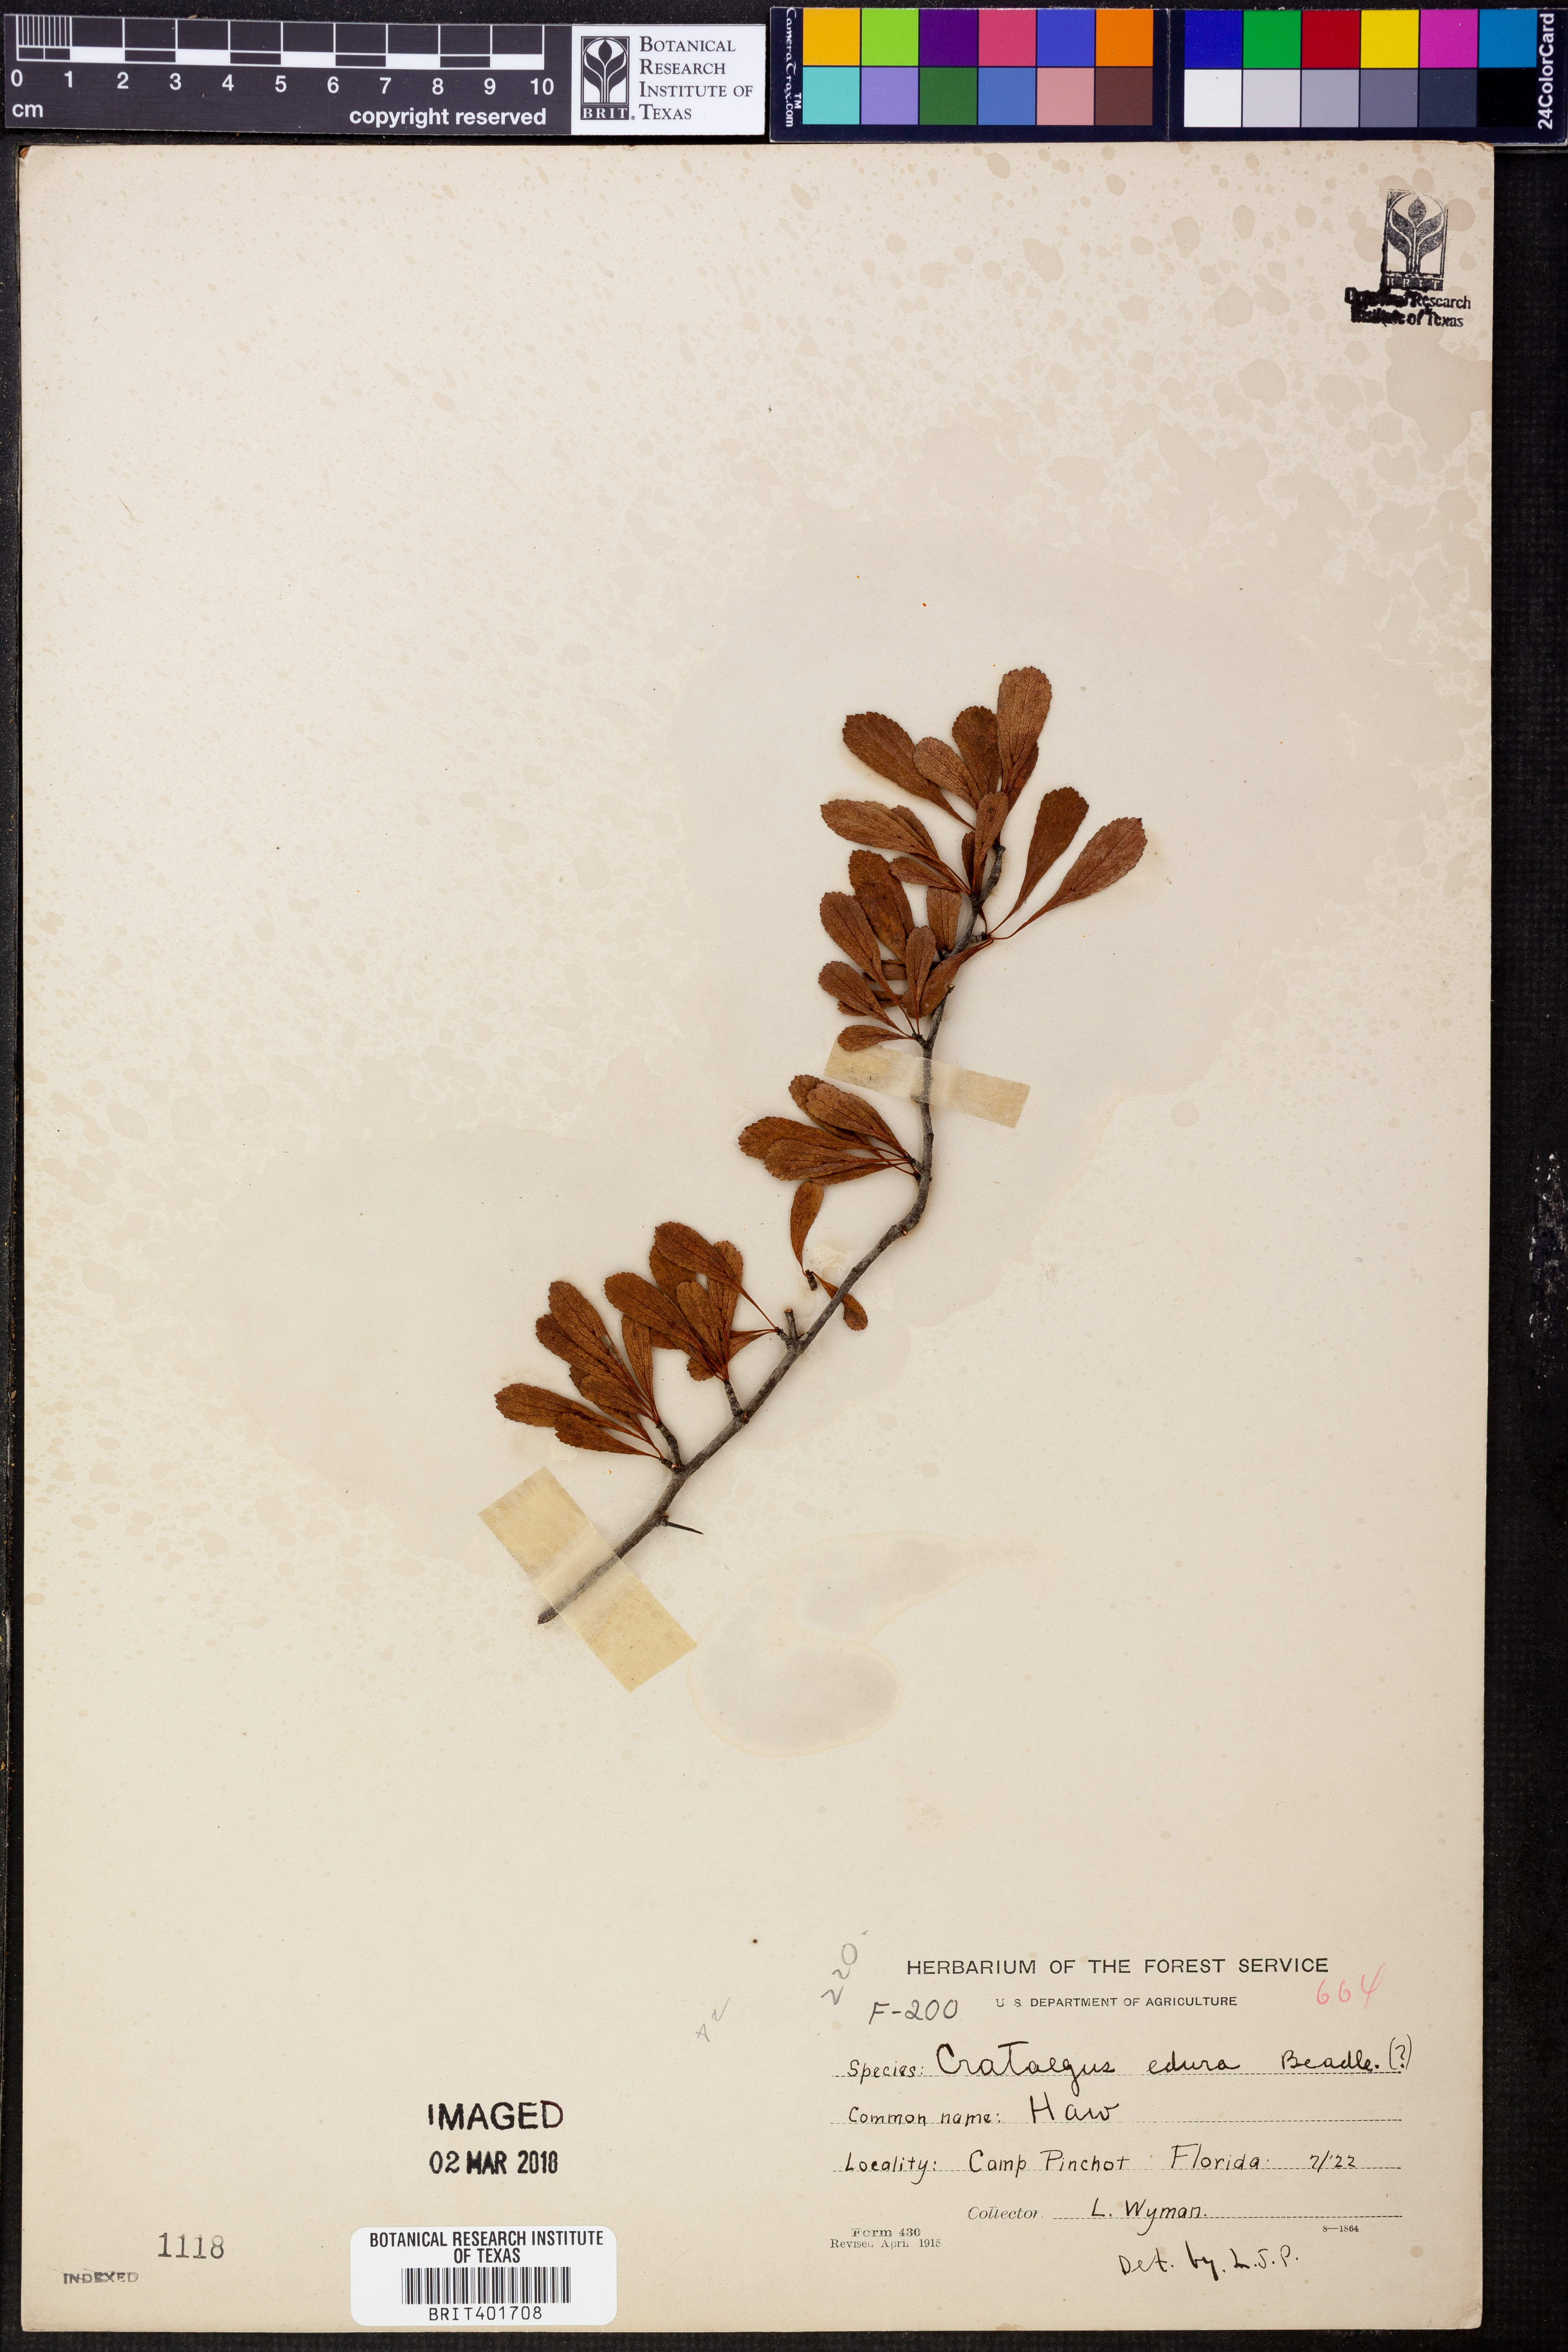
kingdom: Plantae
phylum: Tracheophyta
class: Magnoliopsida
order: Rosales
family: Rosaceae
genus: Crataegus
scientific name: Crataegus berberifolia
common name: Barberry hawthorn
